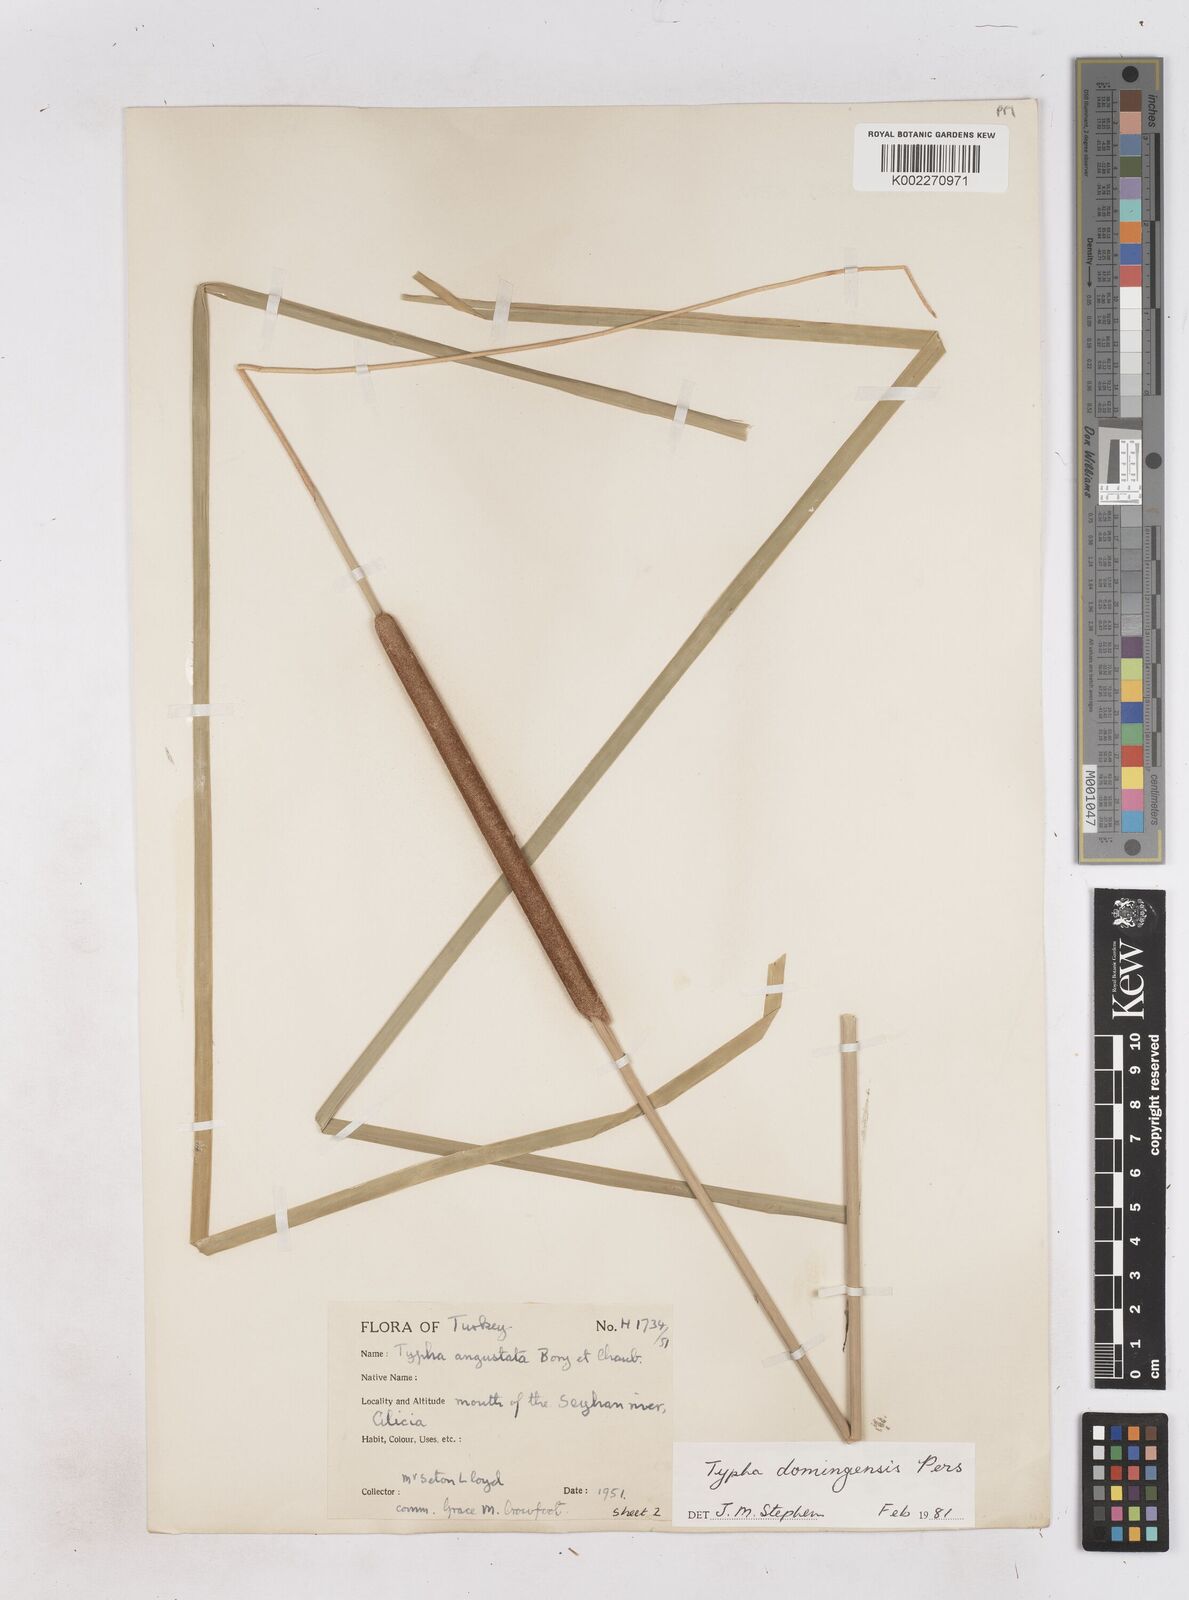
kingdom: Plantae
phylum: Tracheophyta
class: Liliopsida
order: Poales
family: Typhaceae
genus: Typha
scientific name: Typha domingensis
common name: Southern cattail
